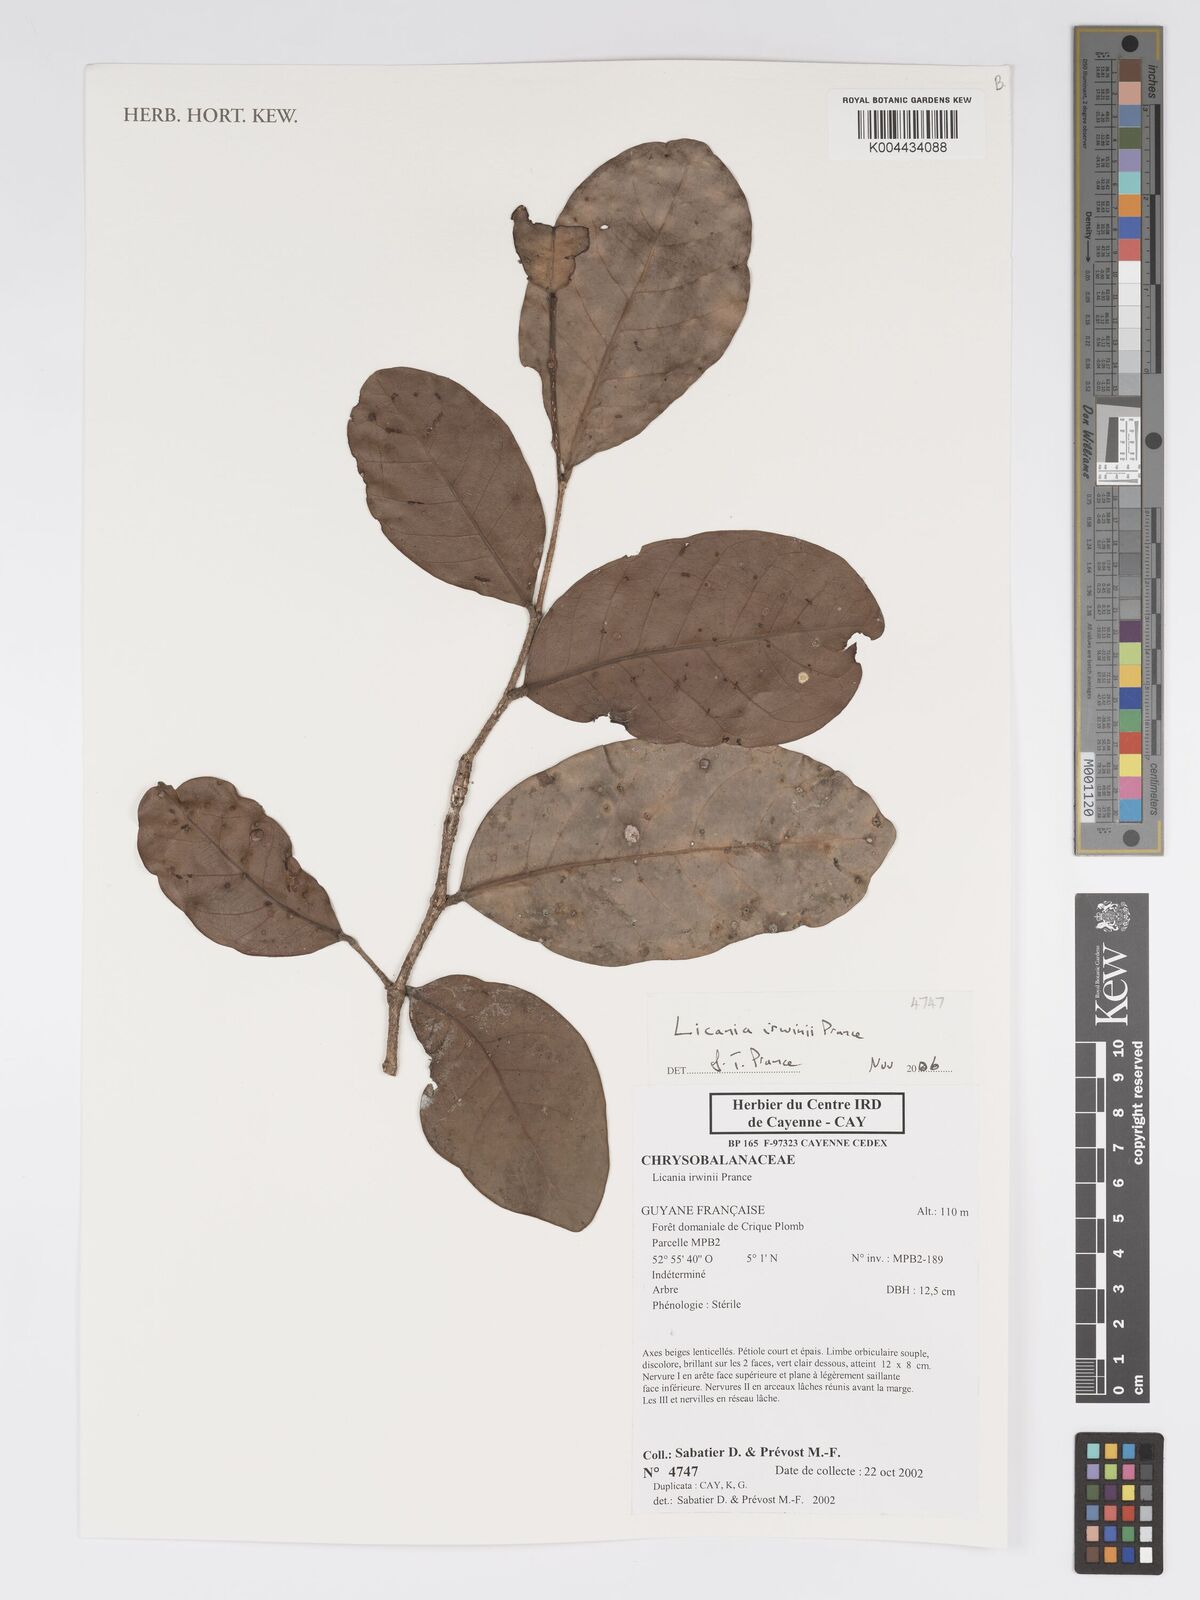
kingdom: Plantae
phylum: Tracheophyta
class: Magnoliopsida
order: Malpighiales
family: Chrysobalanaceae
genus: Licania
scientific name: Licania irwinii
